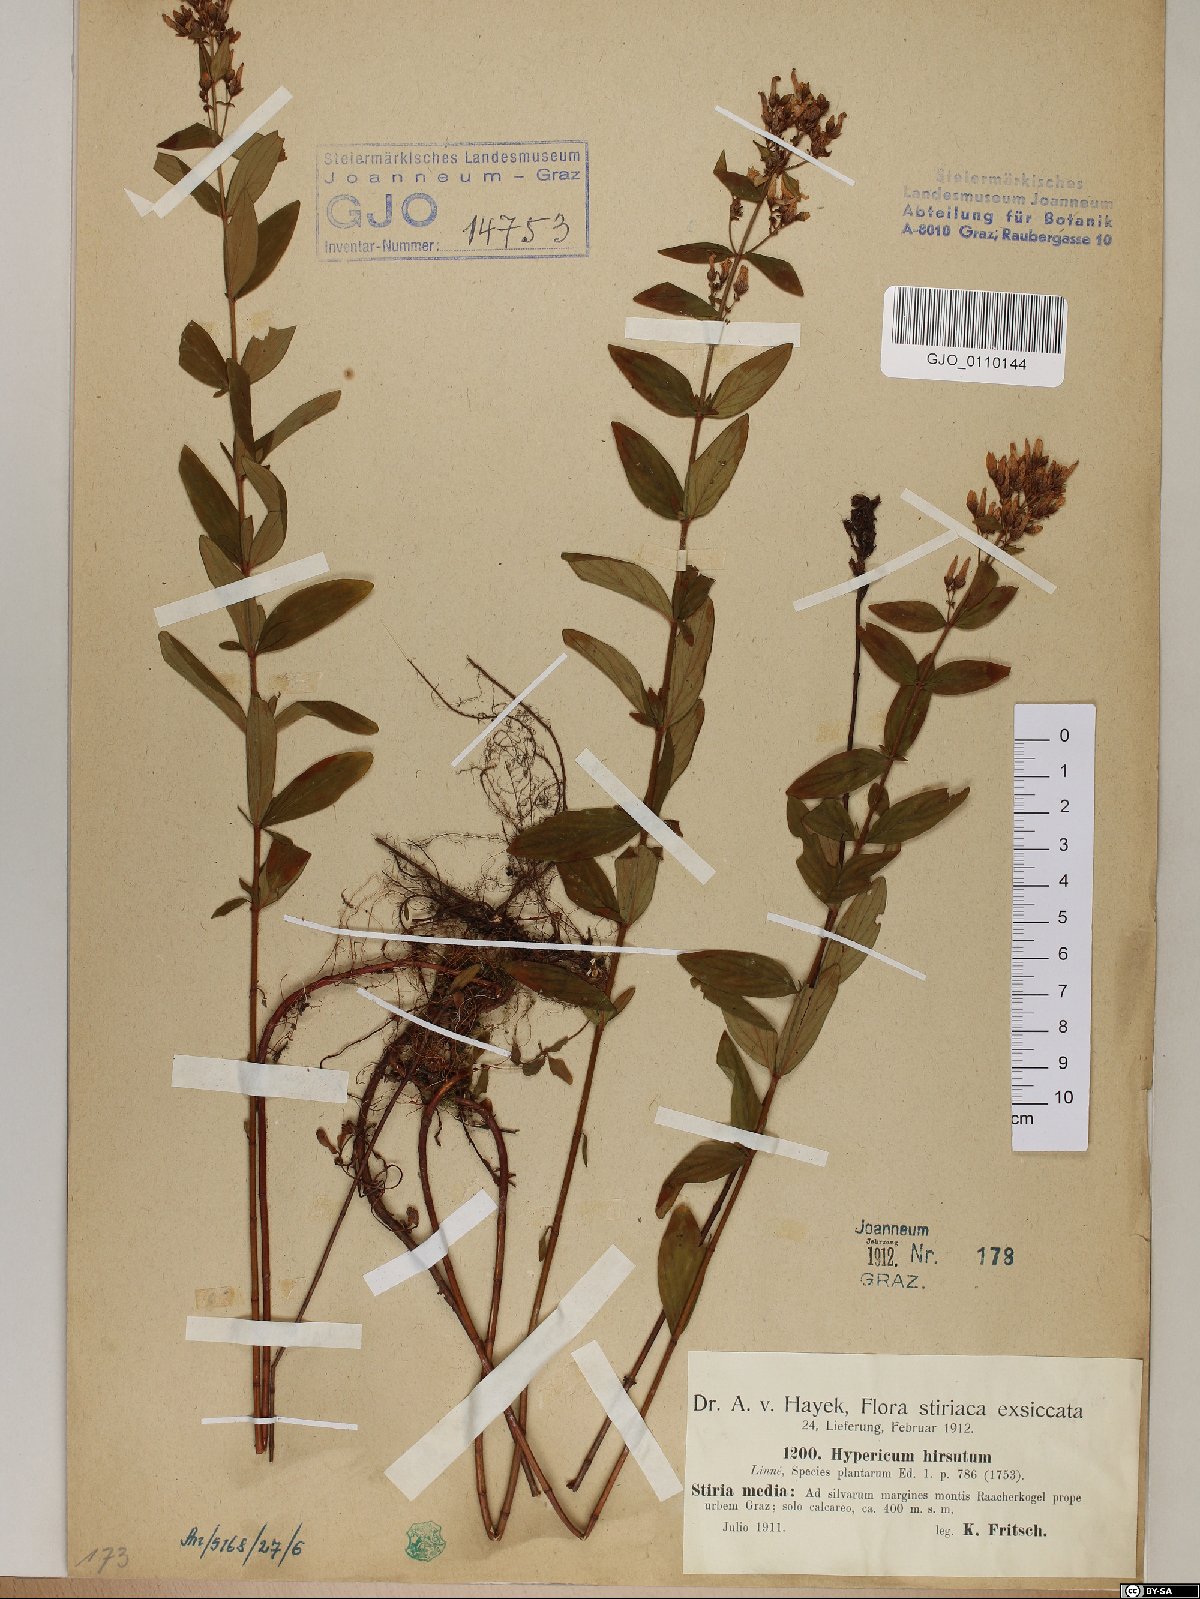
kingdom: Plantae
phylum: Tracheophyta
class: Magnoliopsida
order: Malpighiales
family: Hypericaceae
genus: Hypericum
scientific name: Hypericum hirsutum
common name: Hairy st. john's-wort
